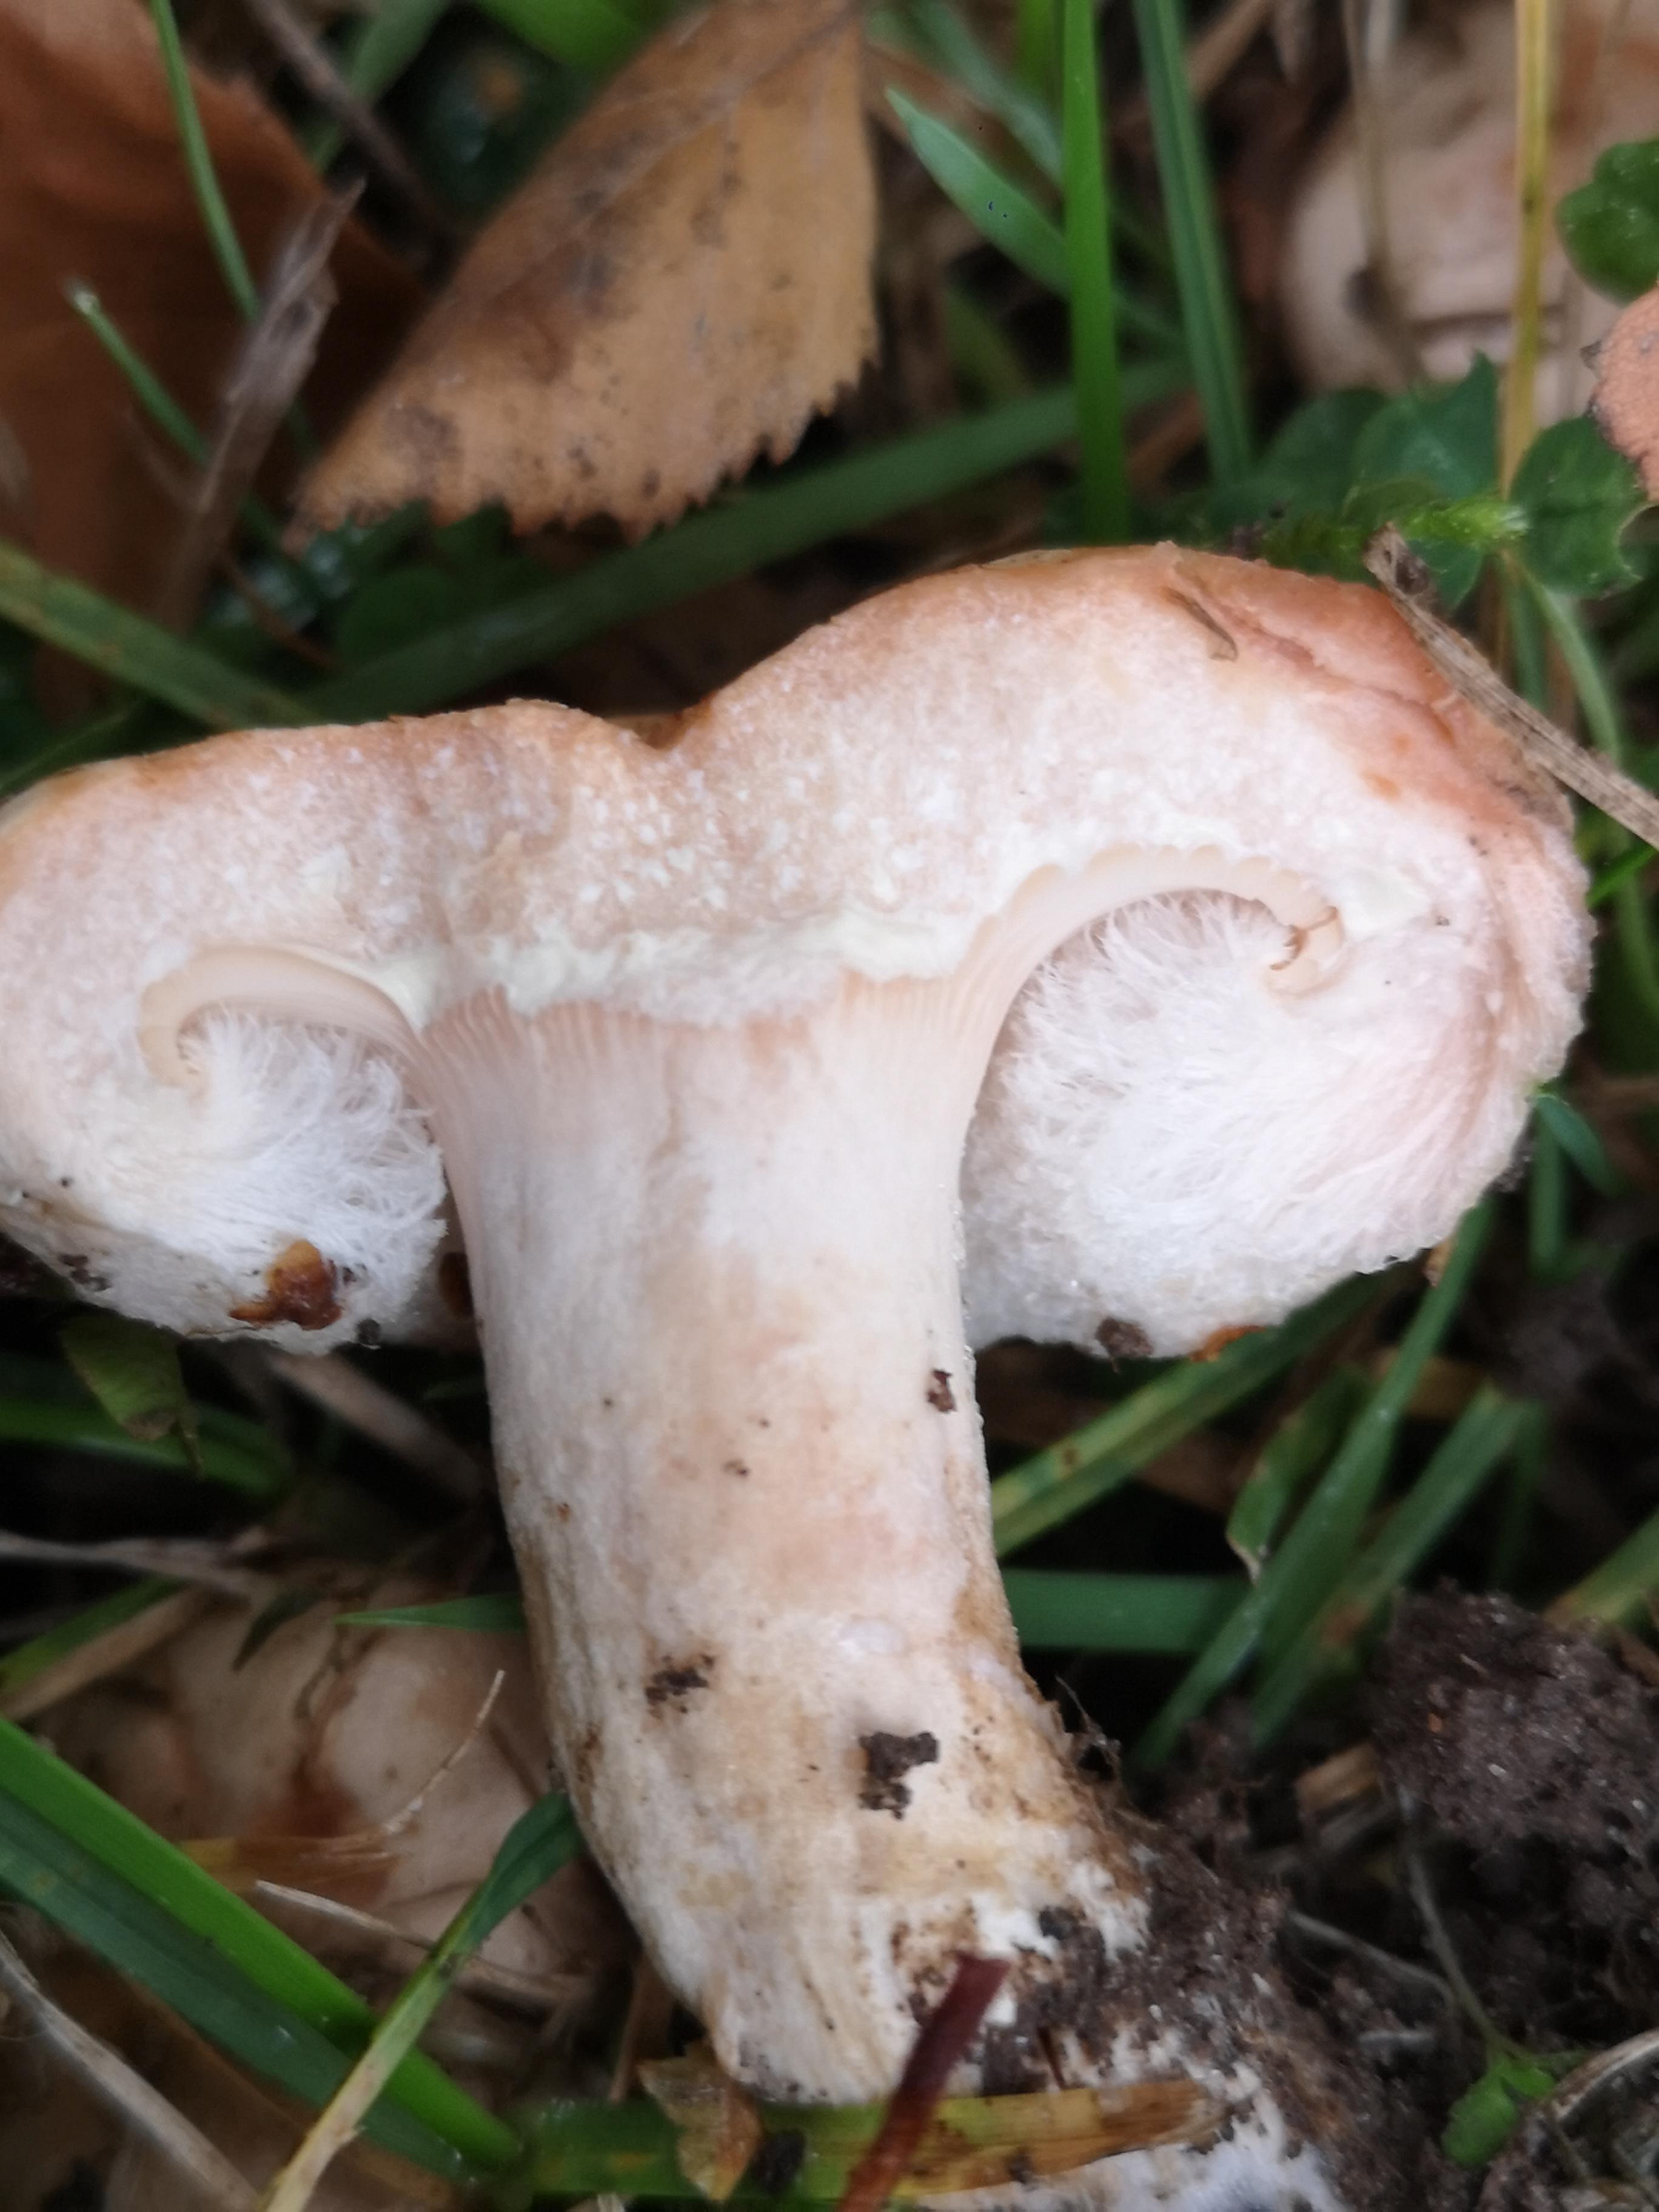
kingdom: Fungi
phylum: Basidiomycota
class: Agaricomycetes
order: Russulales
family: Russulaceae
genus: Lactarius
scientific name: Lactarius pubescens
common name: dunet mælkehat
